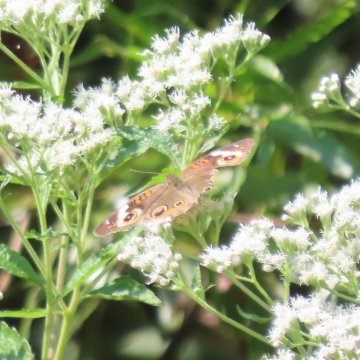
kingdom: Animalia
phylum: Arthropoda
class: Insecta
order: Lepidoptera
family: Nymphalidae
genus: Junonia
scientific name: Junonia coenia
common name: Common Buckeye
